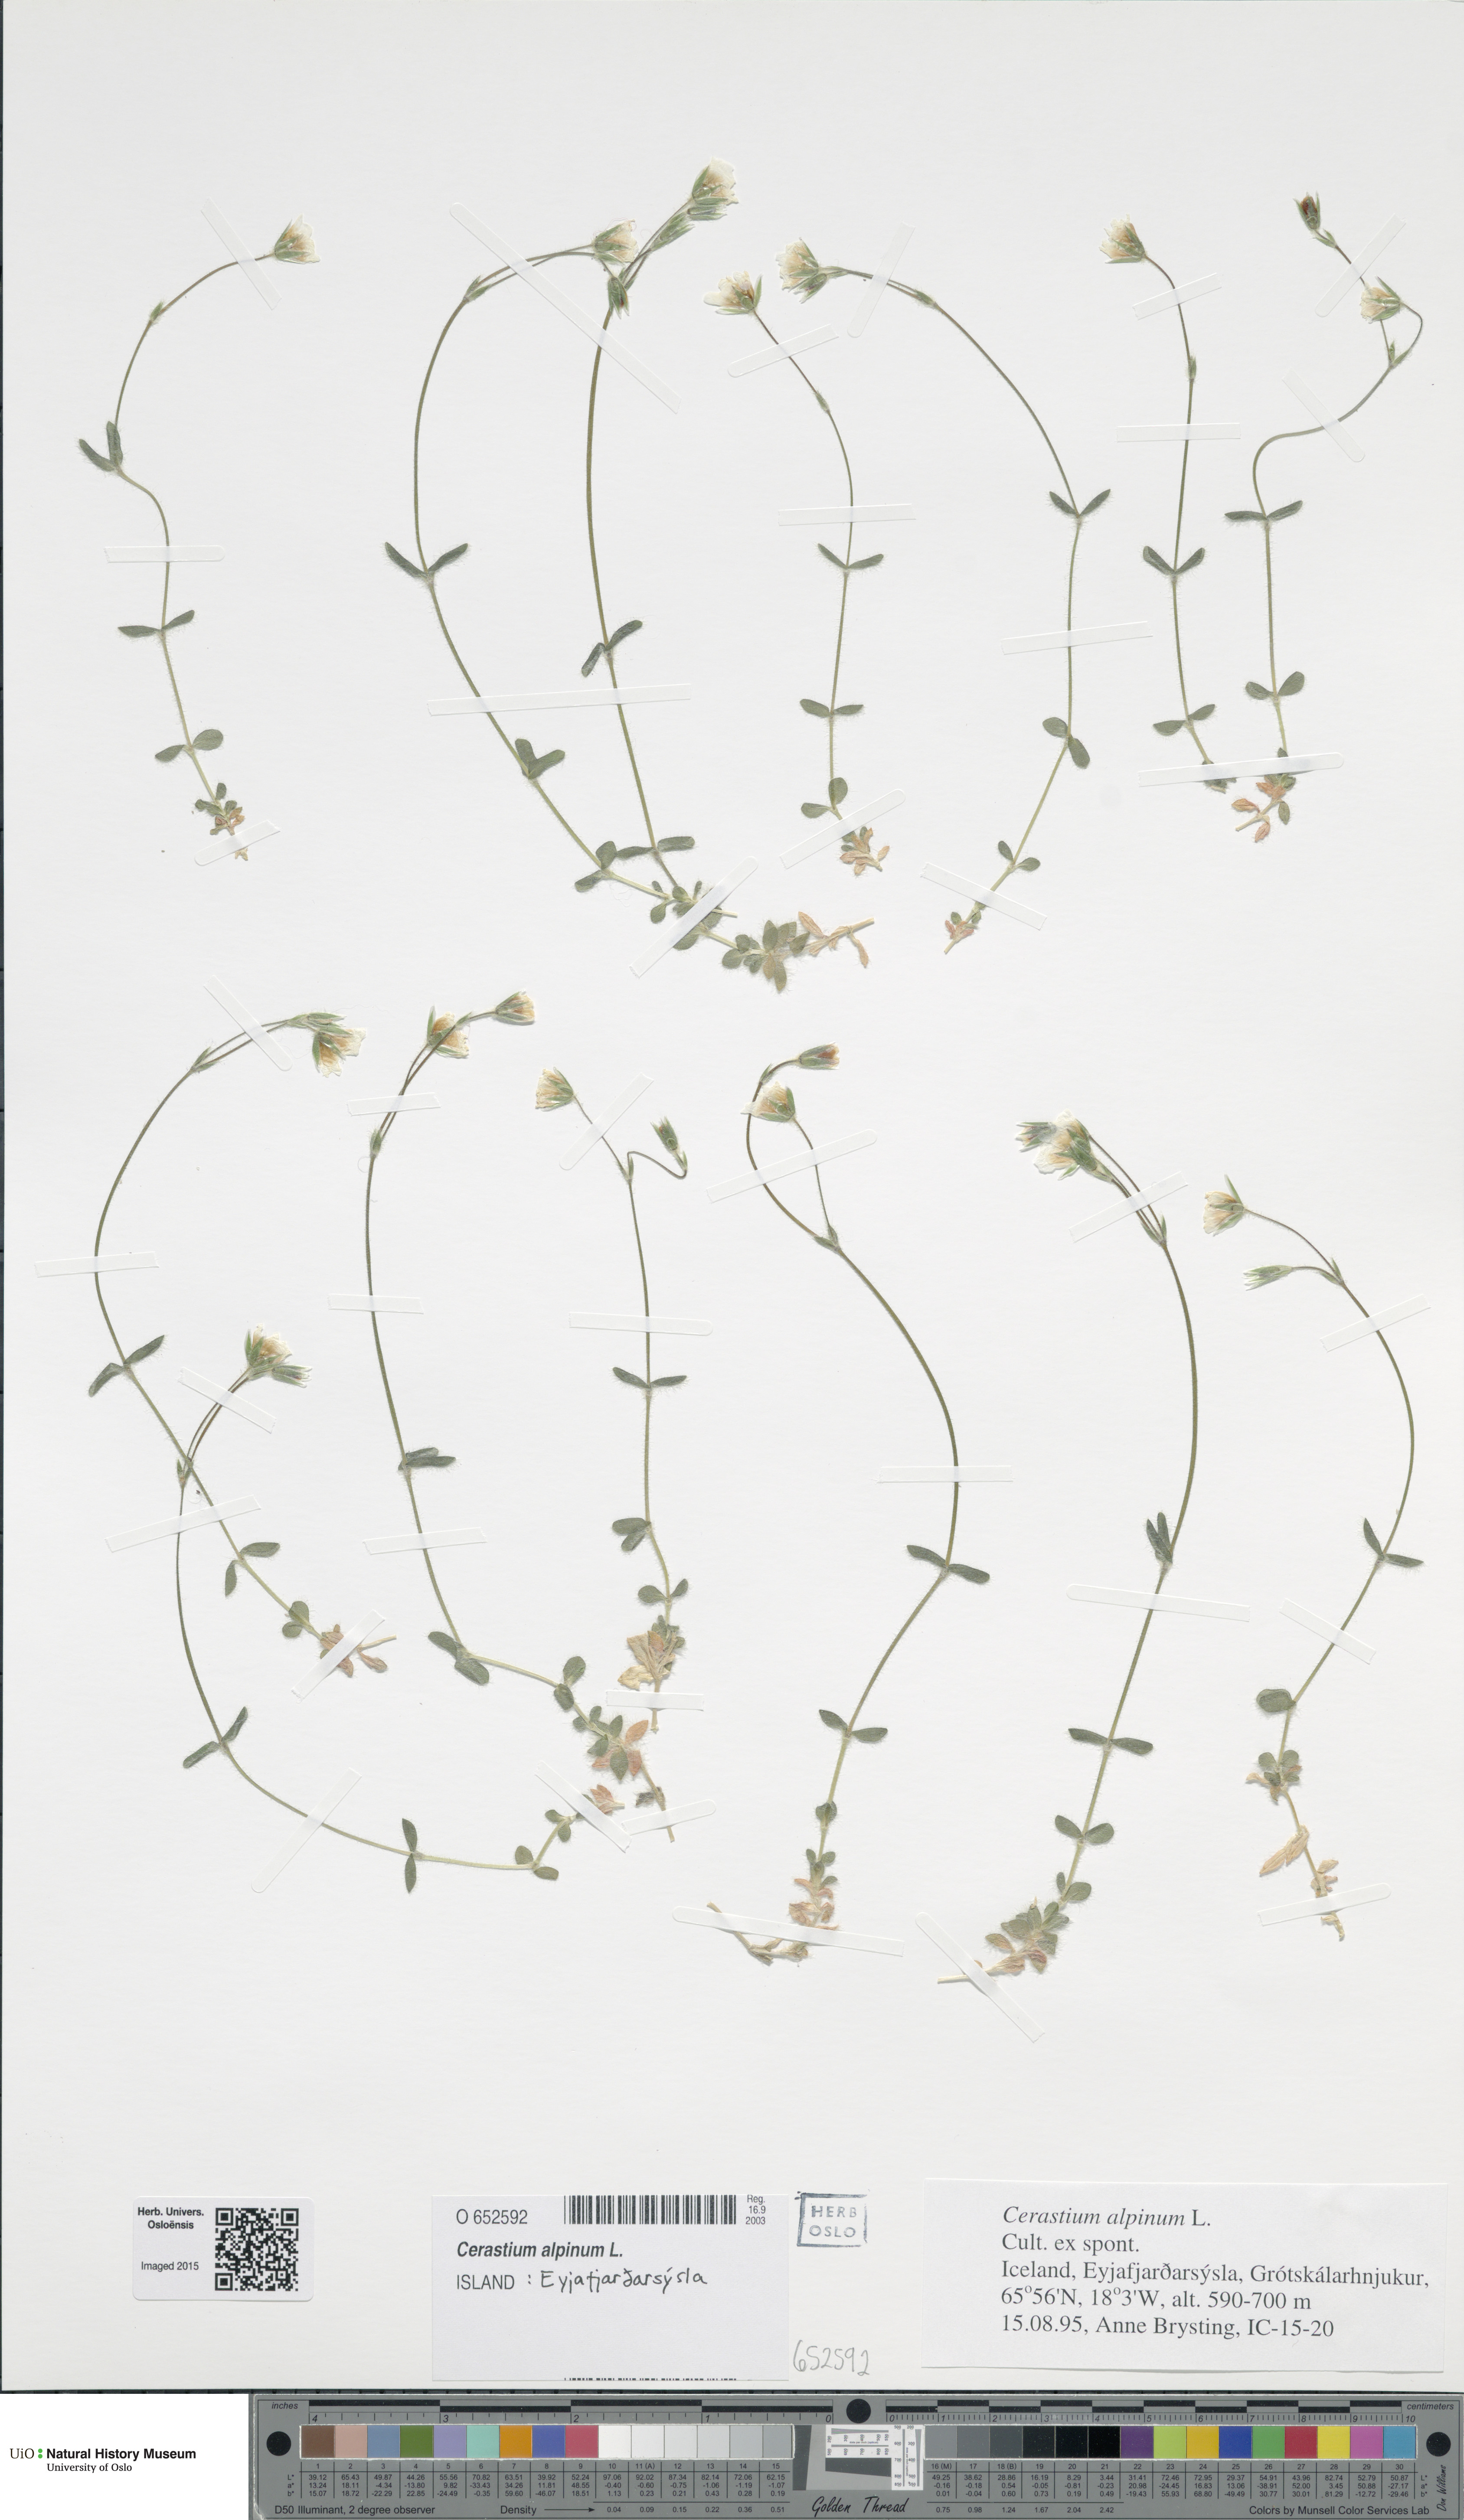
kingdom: Plantae
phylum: Tracheophyta
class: Magnoliopsida
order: Caryophyllales
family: Caryophyllaceae
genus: Cerastium
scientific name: Cerastium alpinum
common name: Alpine mouse-ear
